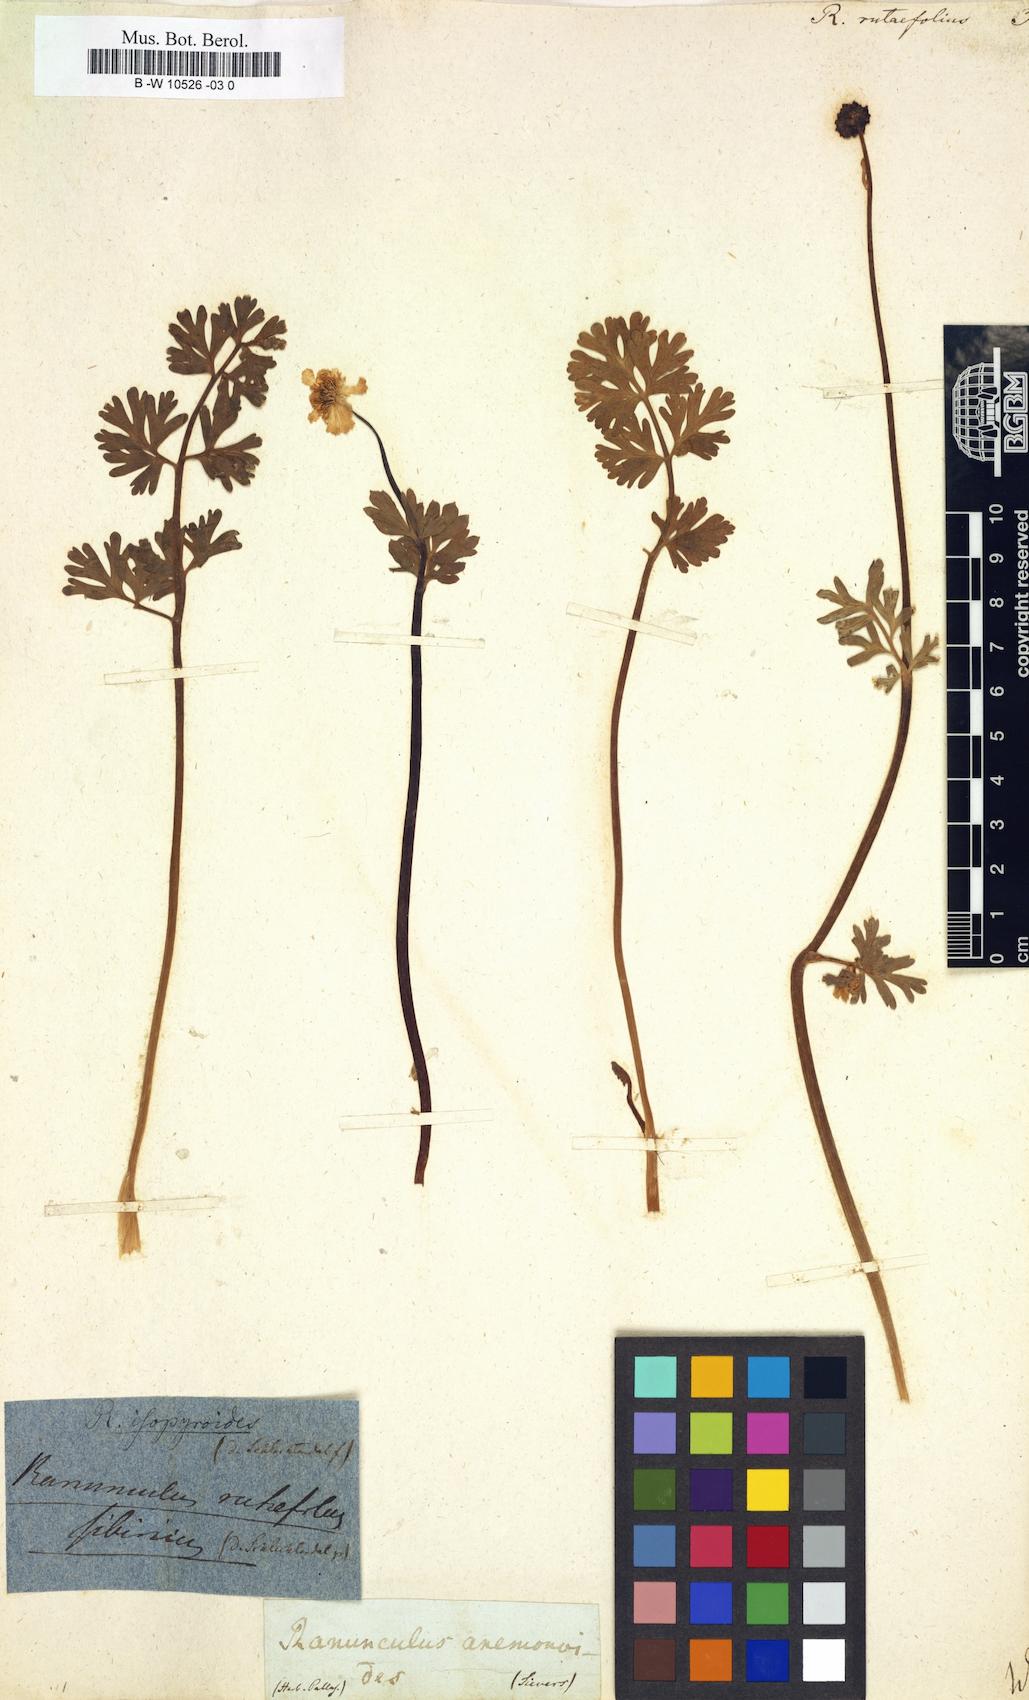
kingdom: Plantae
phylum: Tracheophyta
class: Magnoliopsida
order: Ranunculales
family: Ranunculaceae
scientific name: Ranunculaceae
